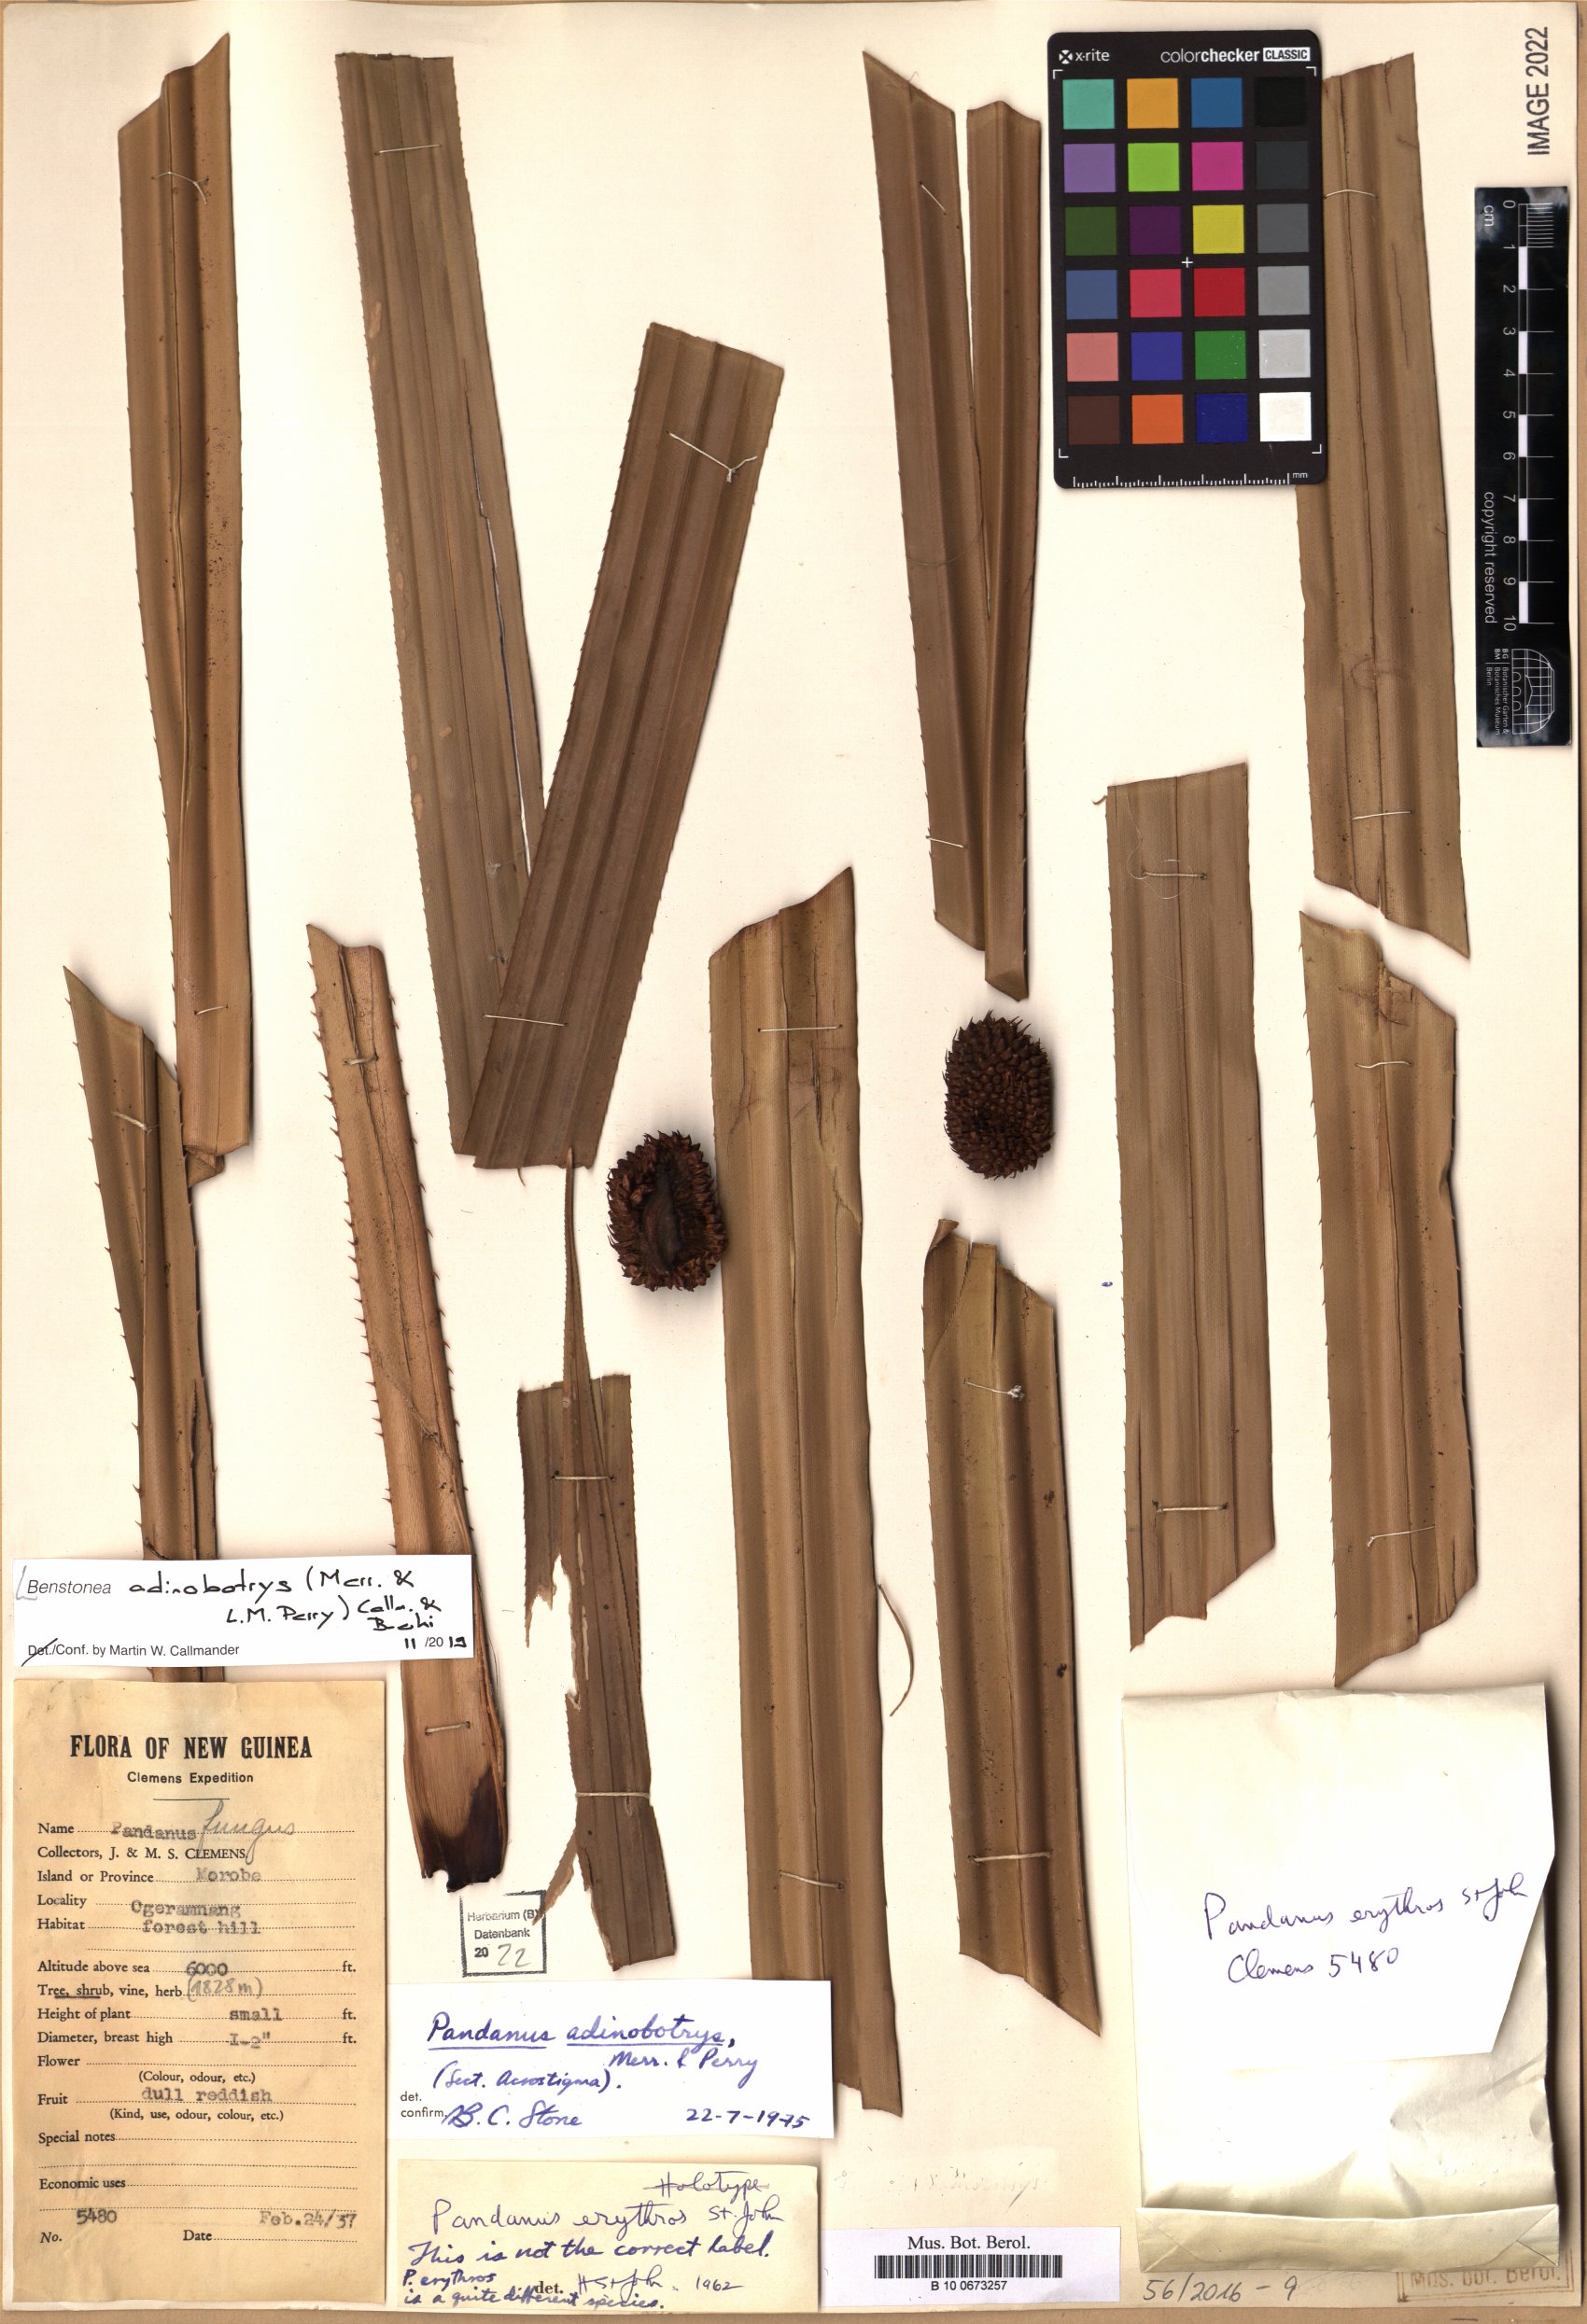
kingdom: Plantae
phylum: Tracheophyta
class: Liliopsida
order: Pandanales
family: Pandanaceae
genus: Benstonea
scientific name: Benstonea adinobotrys
